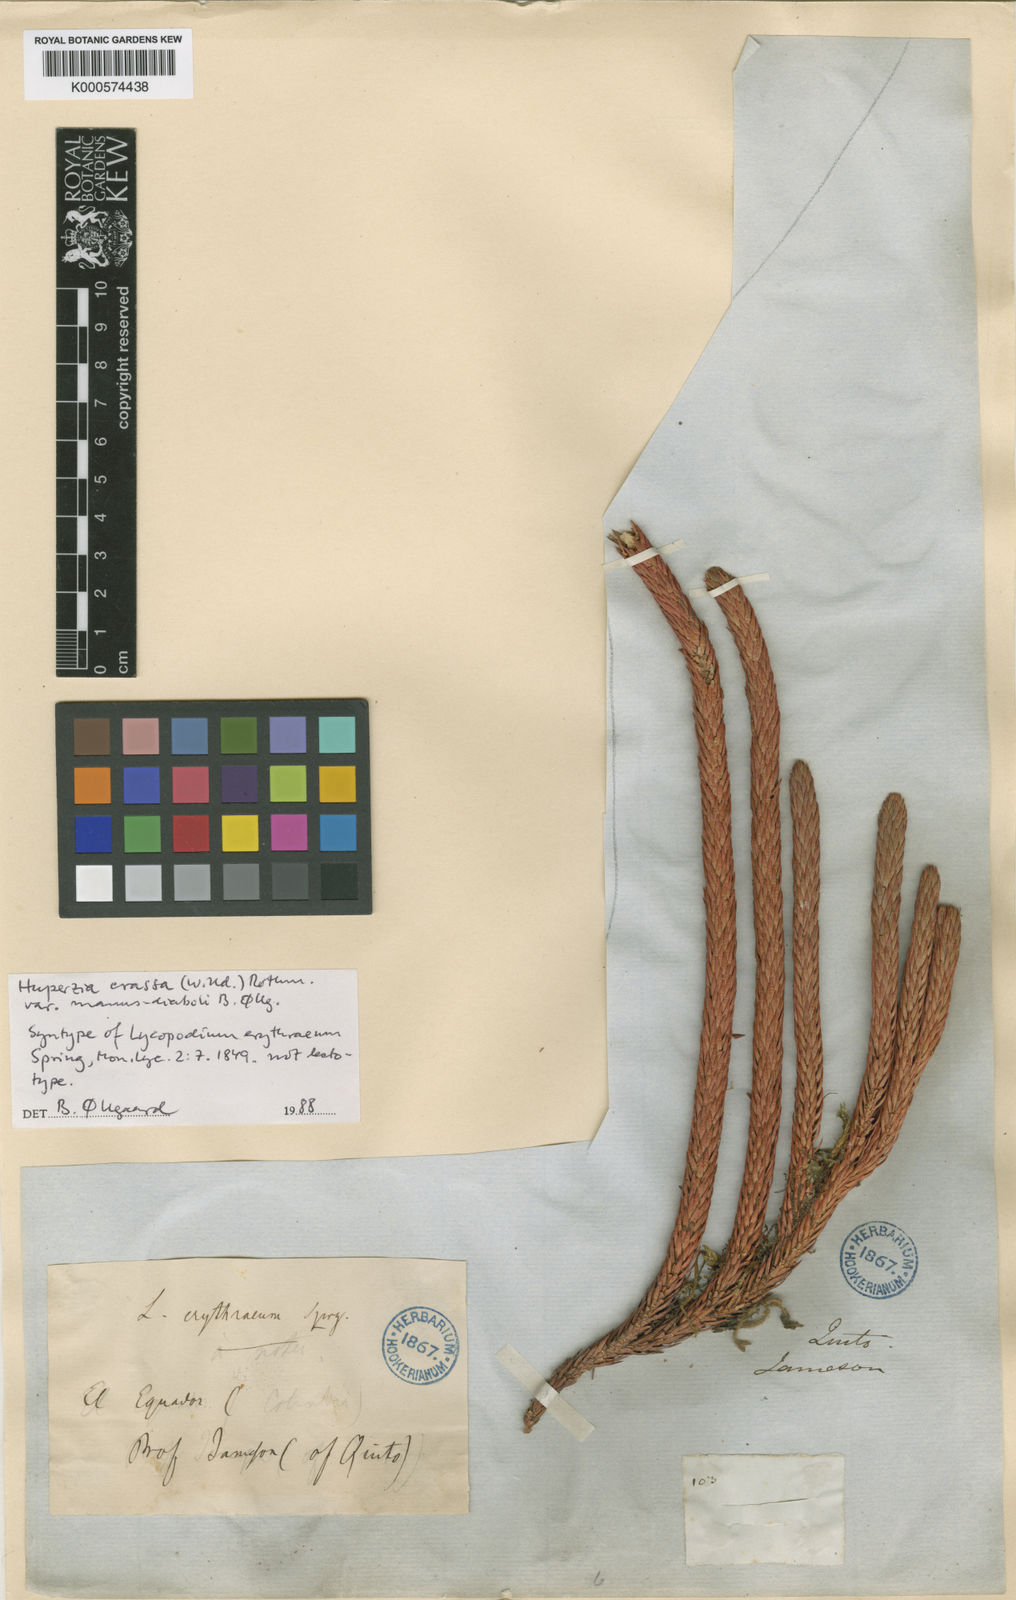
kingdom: Plantae
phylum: Tracheophyta
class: Lycopodiopsida
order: Lycopodiales
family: Lycopodiaceae
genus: Phlegmariurus
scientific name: Phlegmariurus crassus
